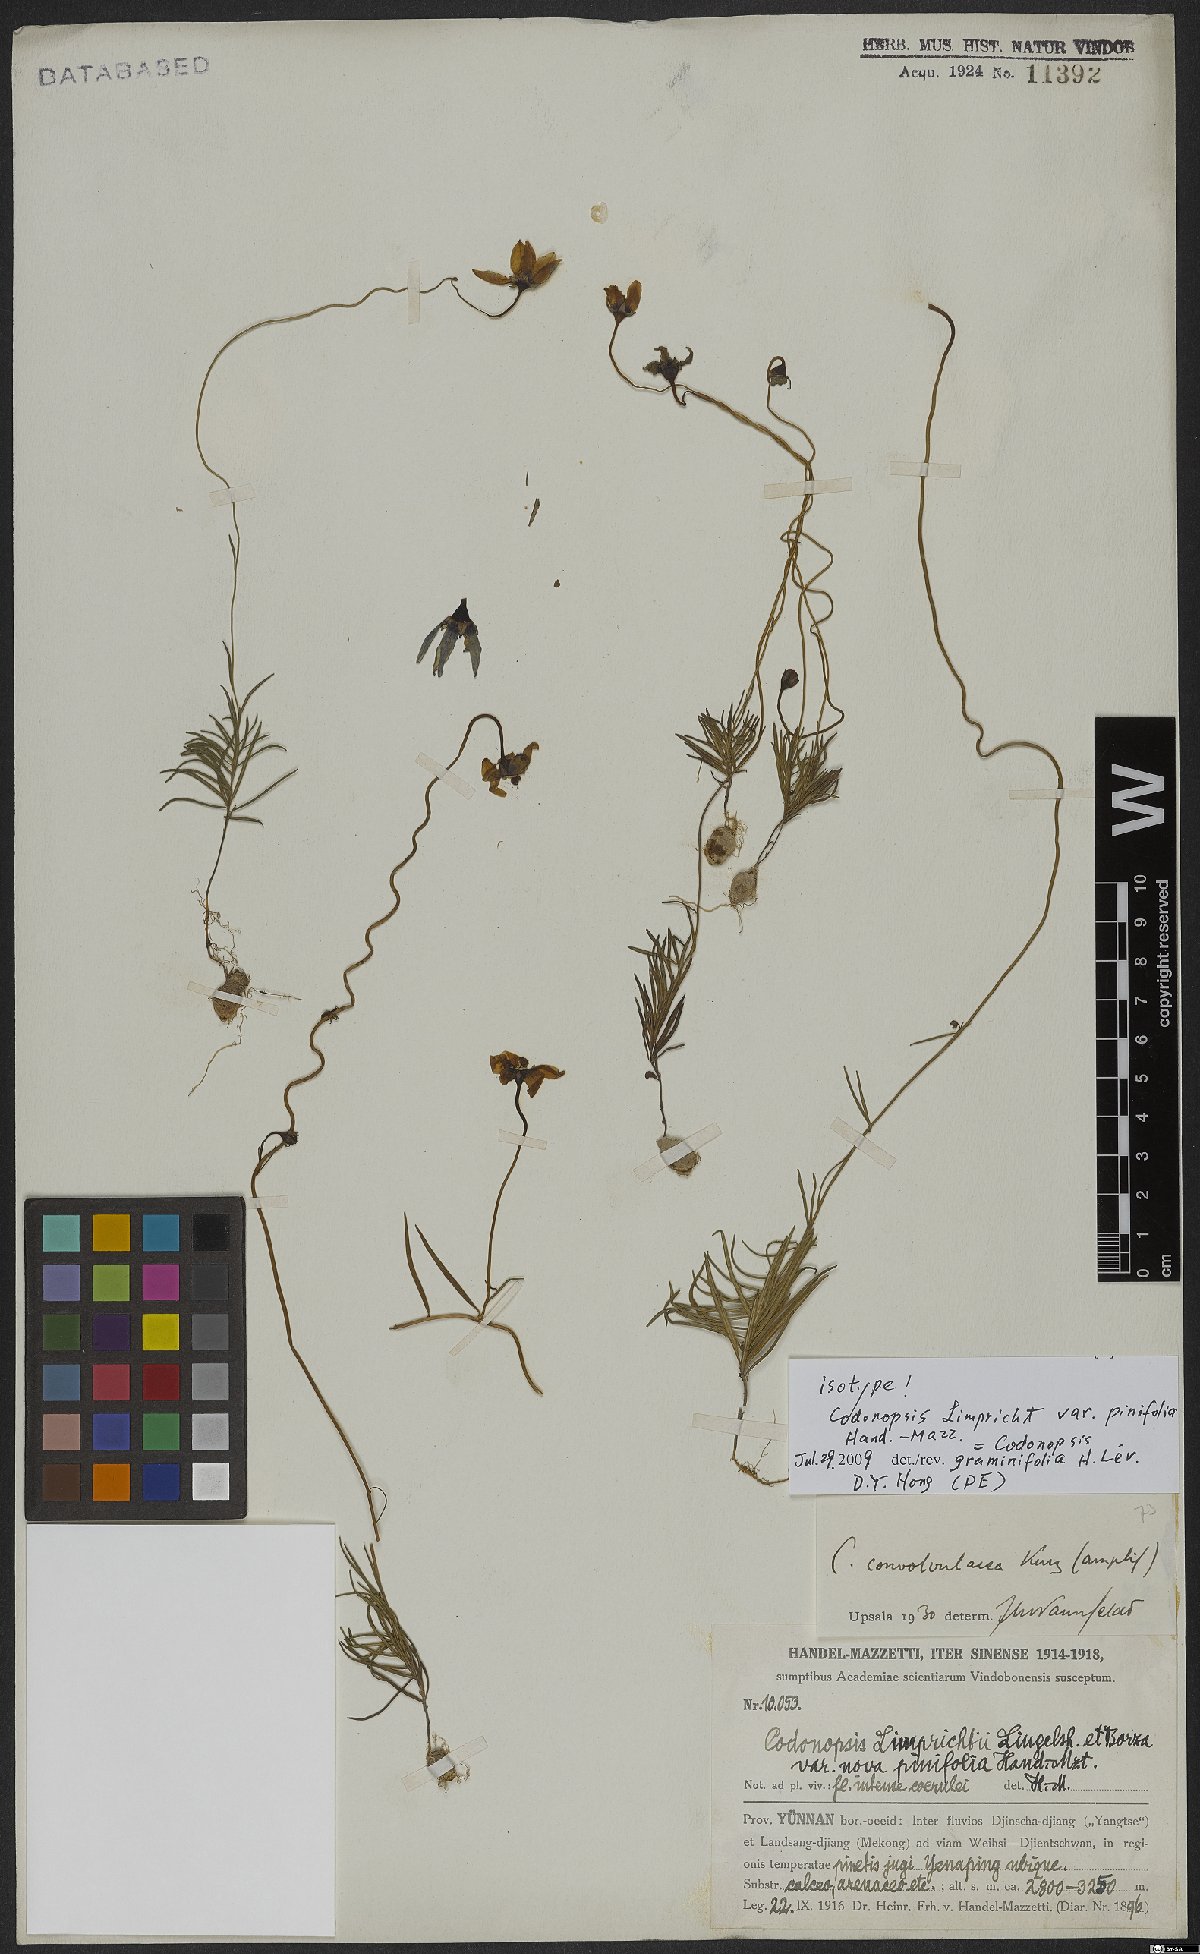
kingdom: Plantae
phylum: Tracheophyta
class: Magnoliopsida
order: Asterales
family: Campanulaceae
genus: Pseudocodon
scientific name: Pseudocodon graminifolius
